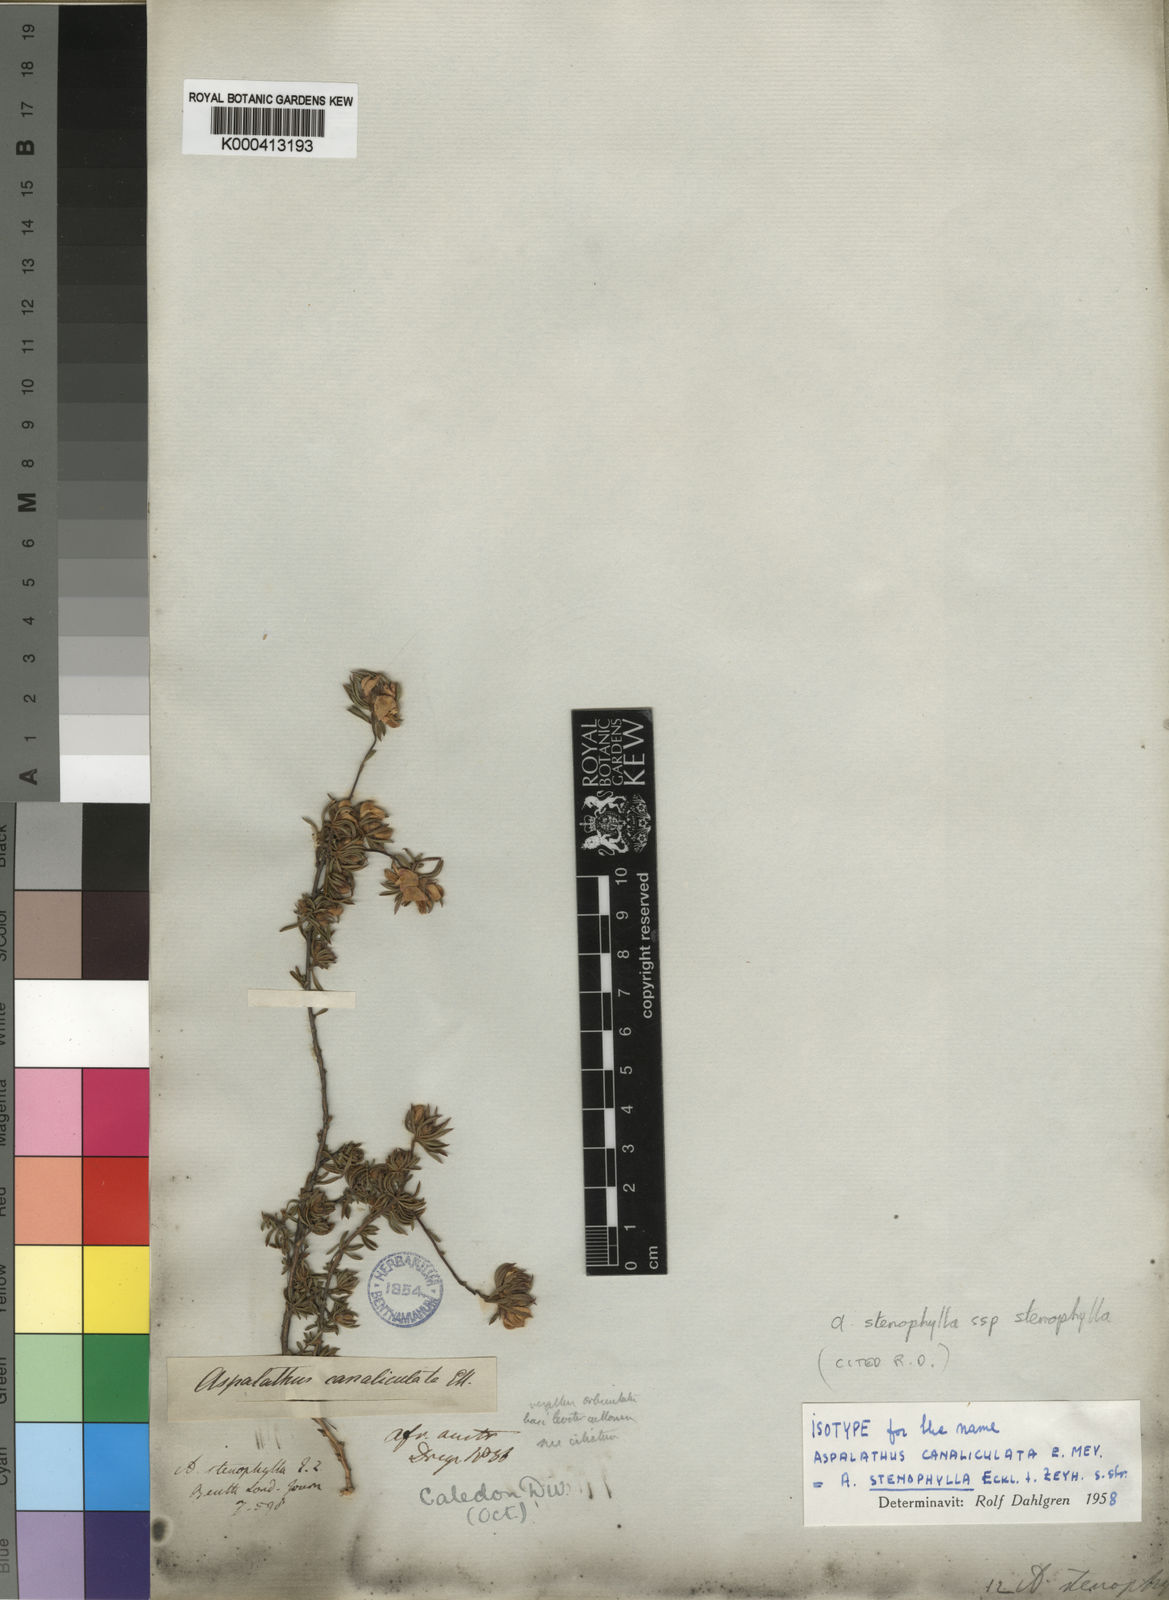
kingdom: Plantae
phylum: Tracheophyta
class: Magnoliopsida
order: Fabales
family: Fabaceae
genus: Aspalathus
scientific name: Aspalathus stenophylla
